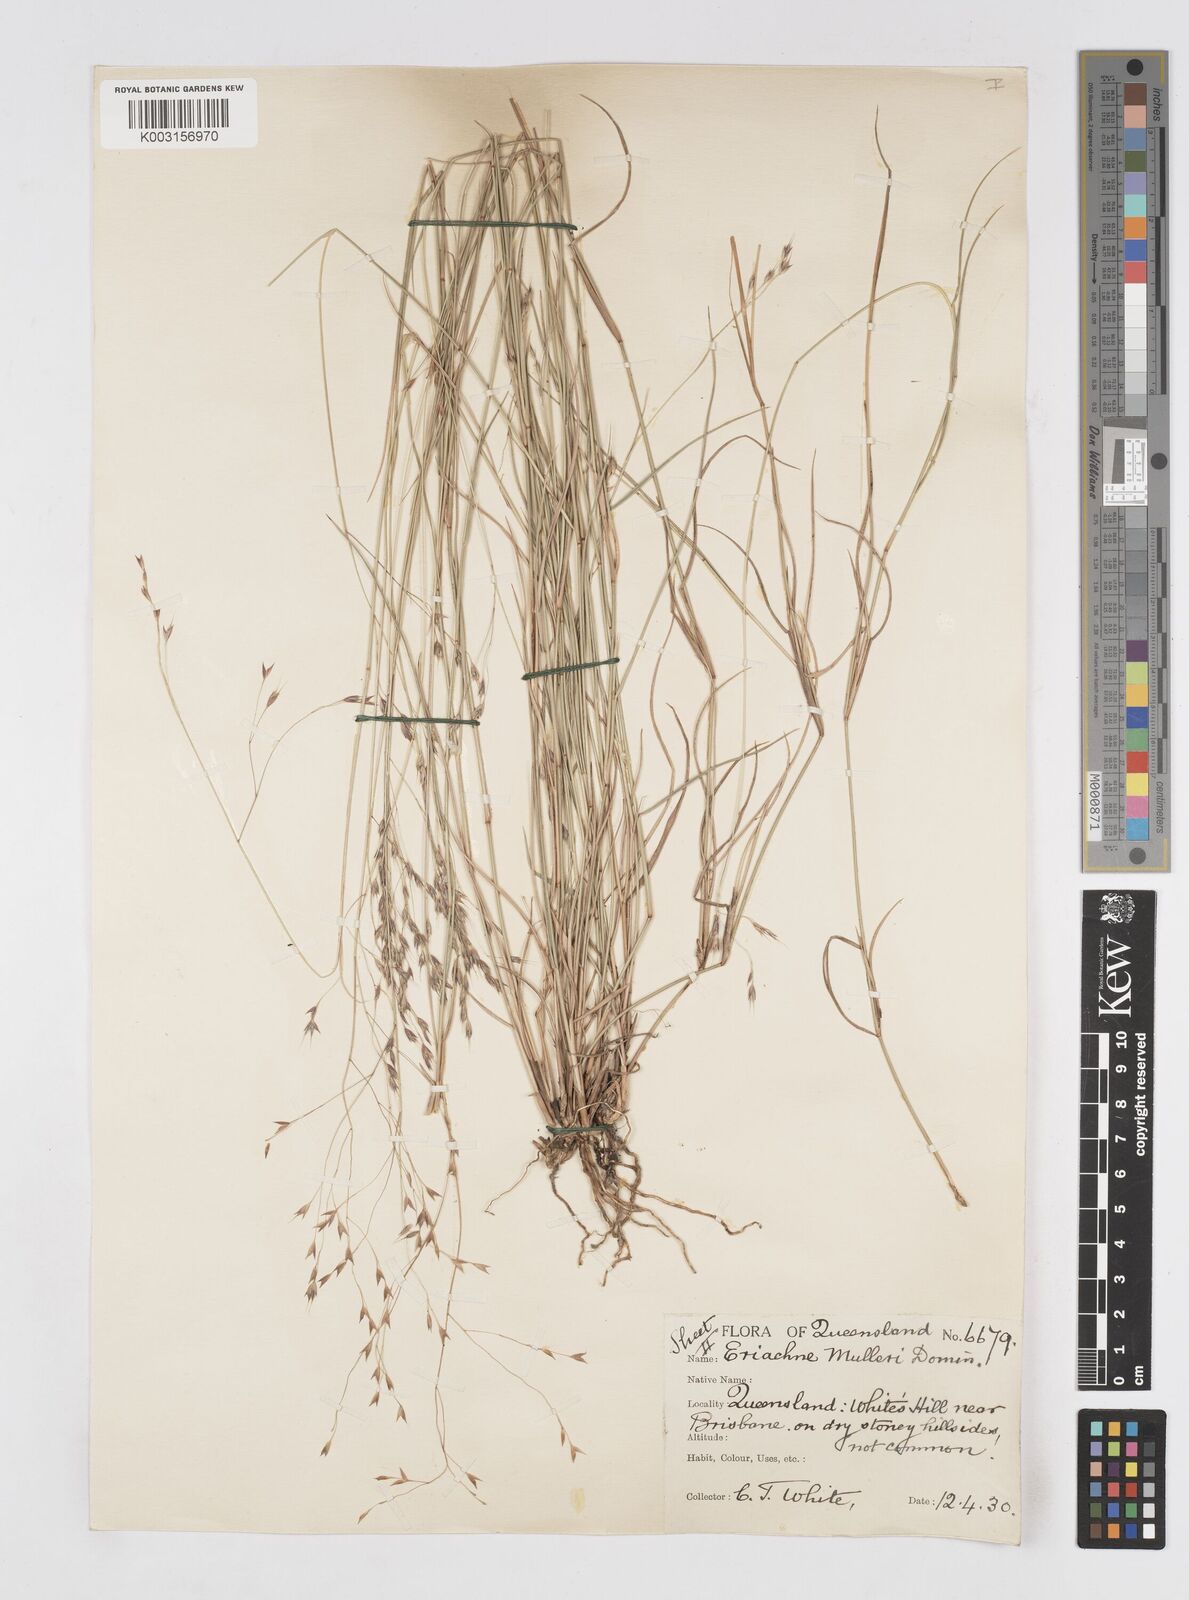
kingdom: Plantae
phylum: Tracheophyta
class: Liliopsida
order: Poales
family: Poaceae
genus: Eriachne
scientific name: Eriachne pallescens
